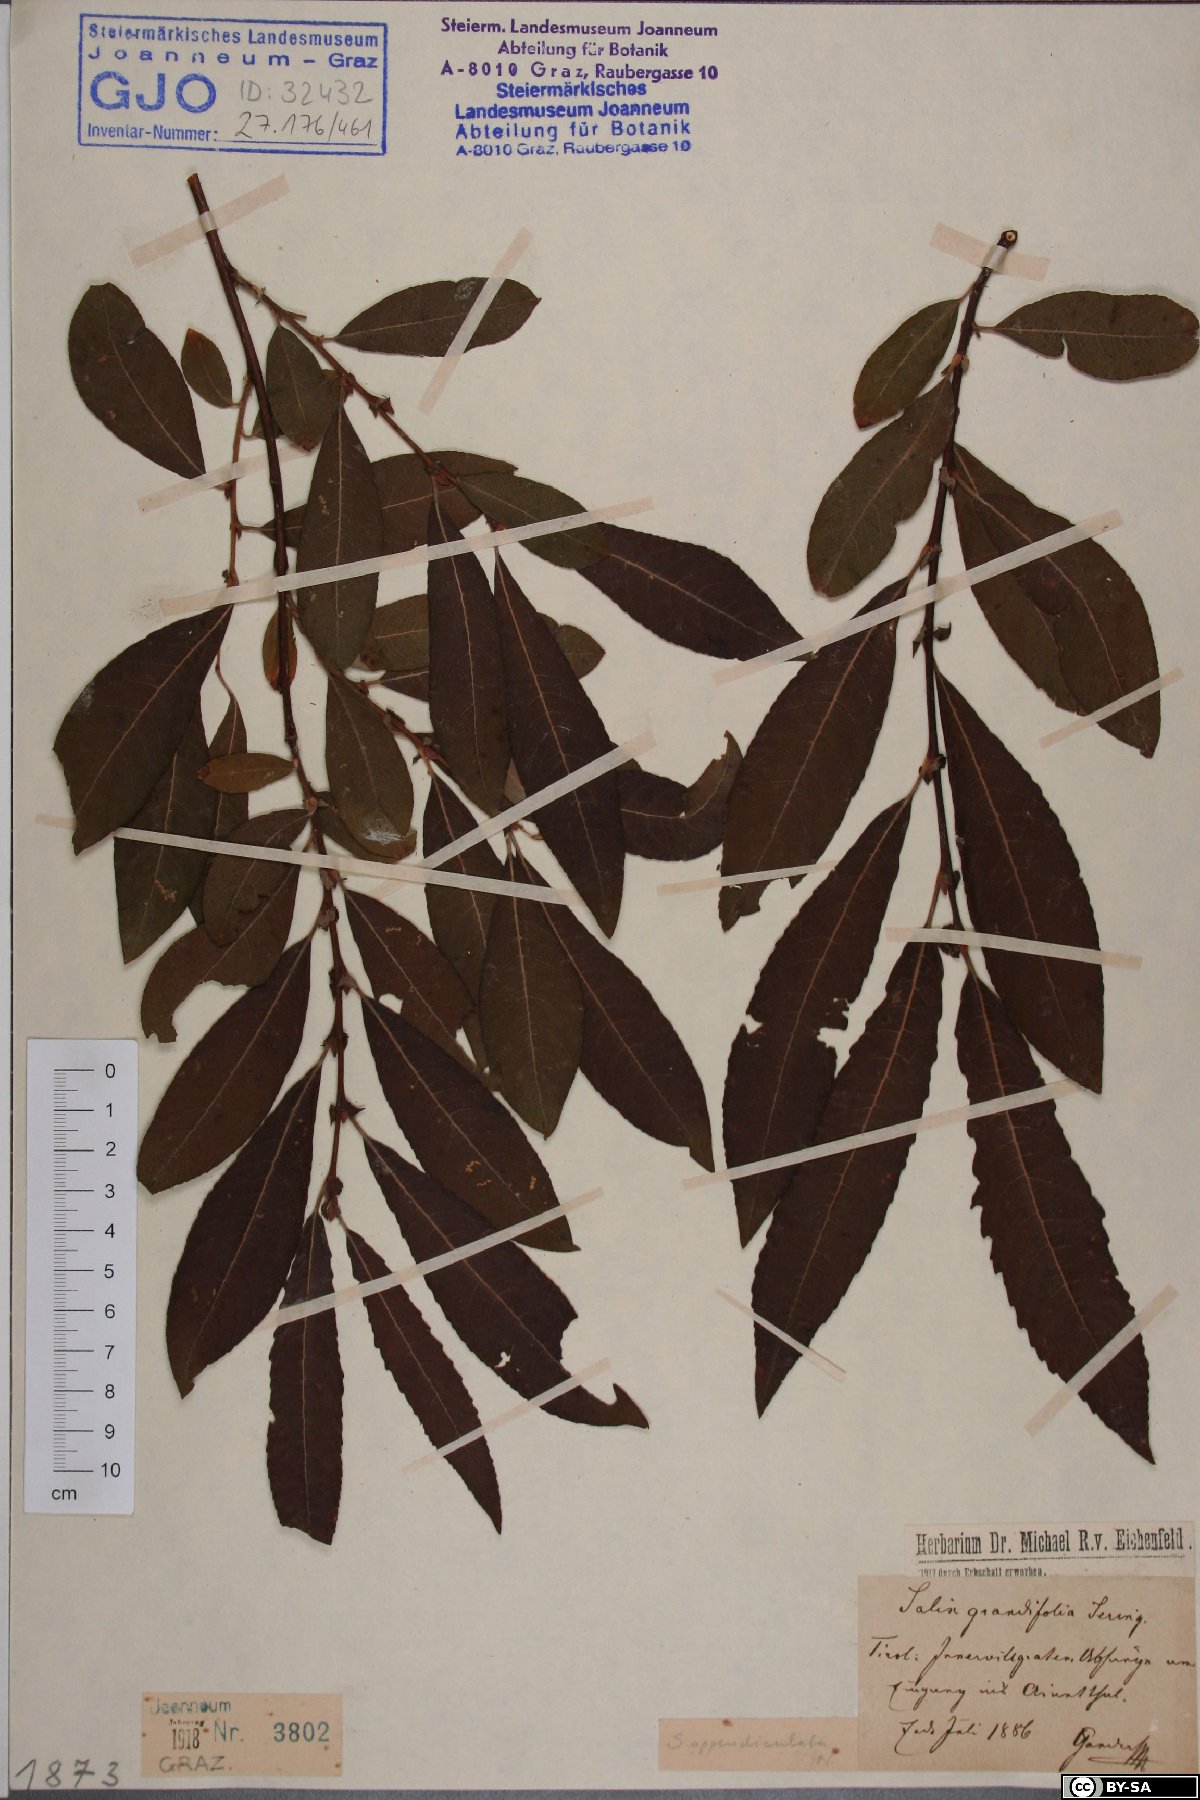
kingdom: Plantae
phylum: Tracheophyta
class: Magnoliopsida
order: Malpighiales
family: Salicaceae
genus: Salix
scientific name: Salix appendiculata
